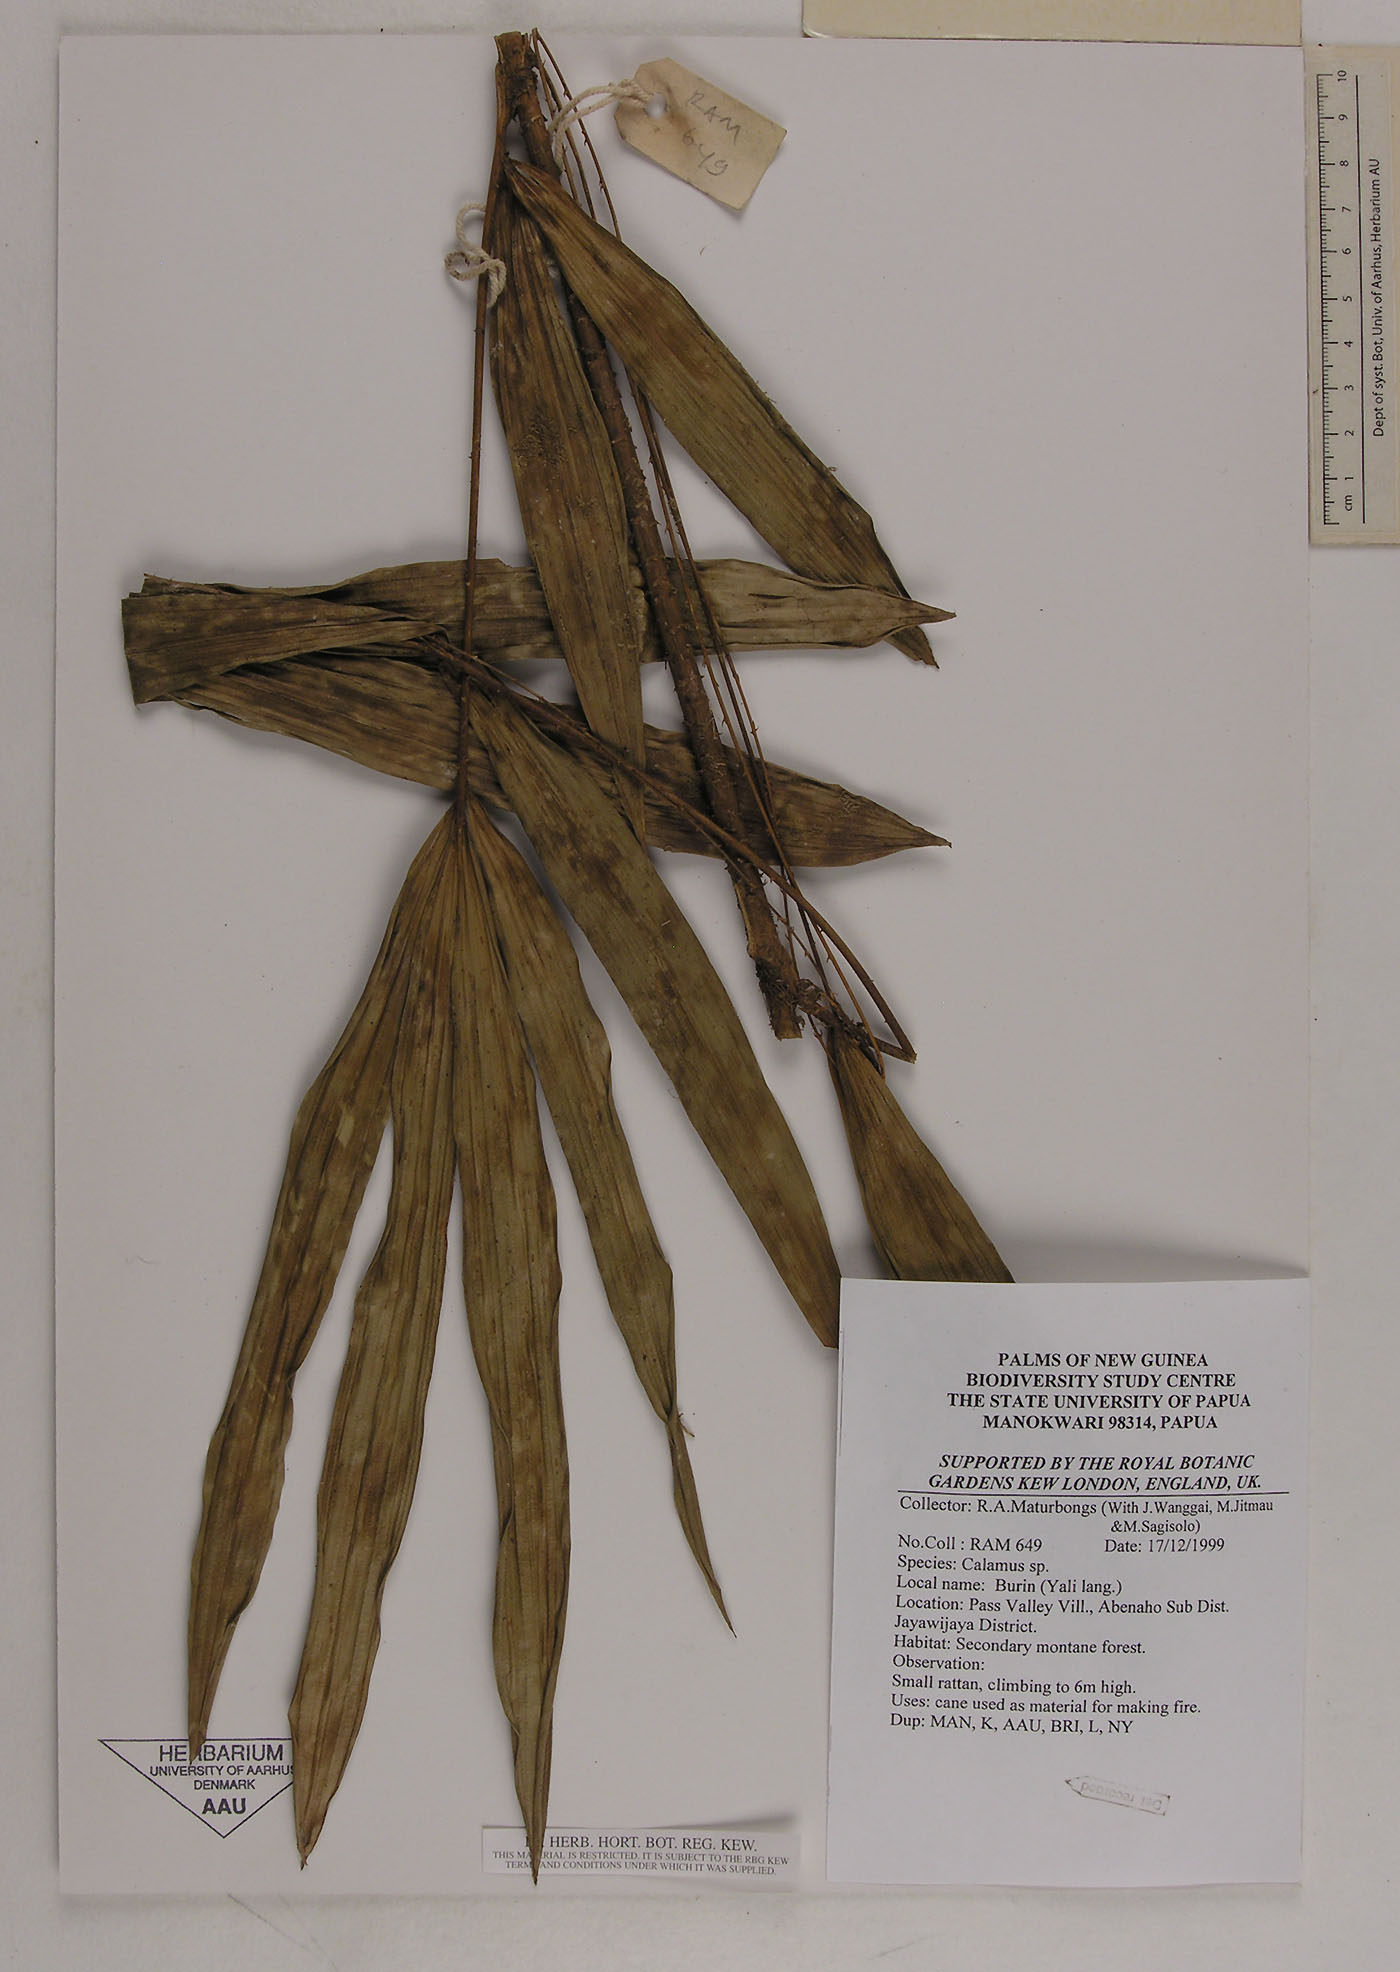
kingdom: Plantae
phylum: Tracheophyta
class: Liliopsida
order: Arecales
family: Arecaceae
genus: Calamus
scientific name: Calamus
